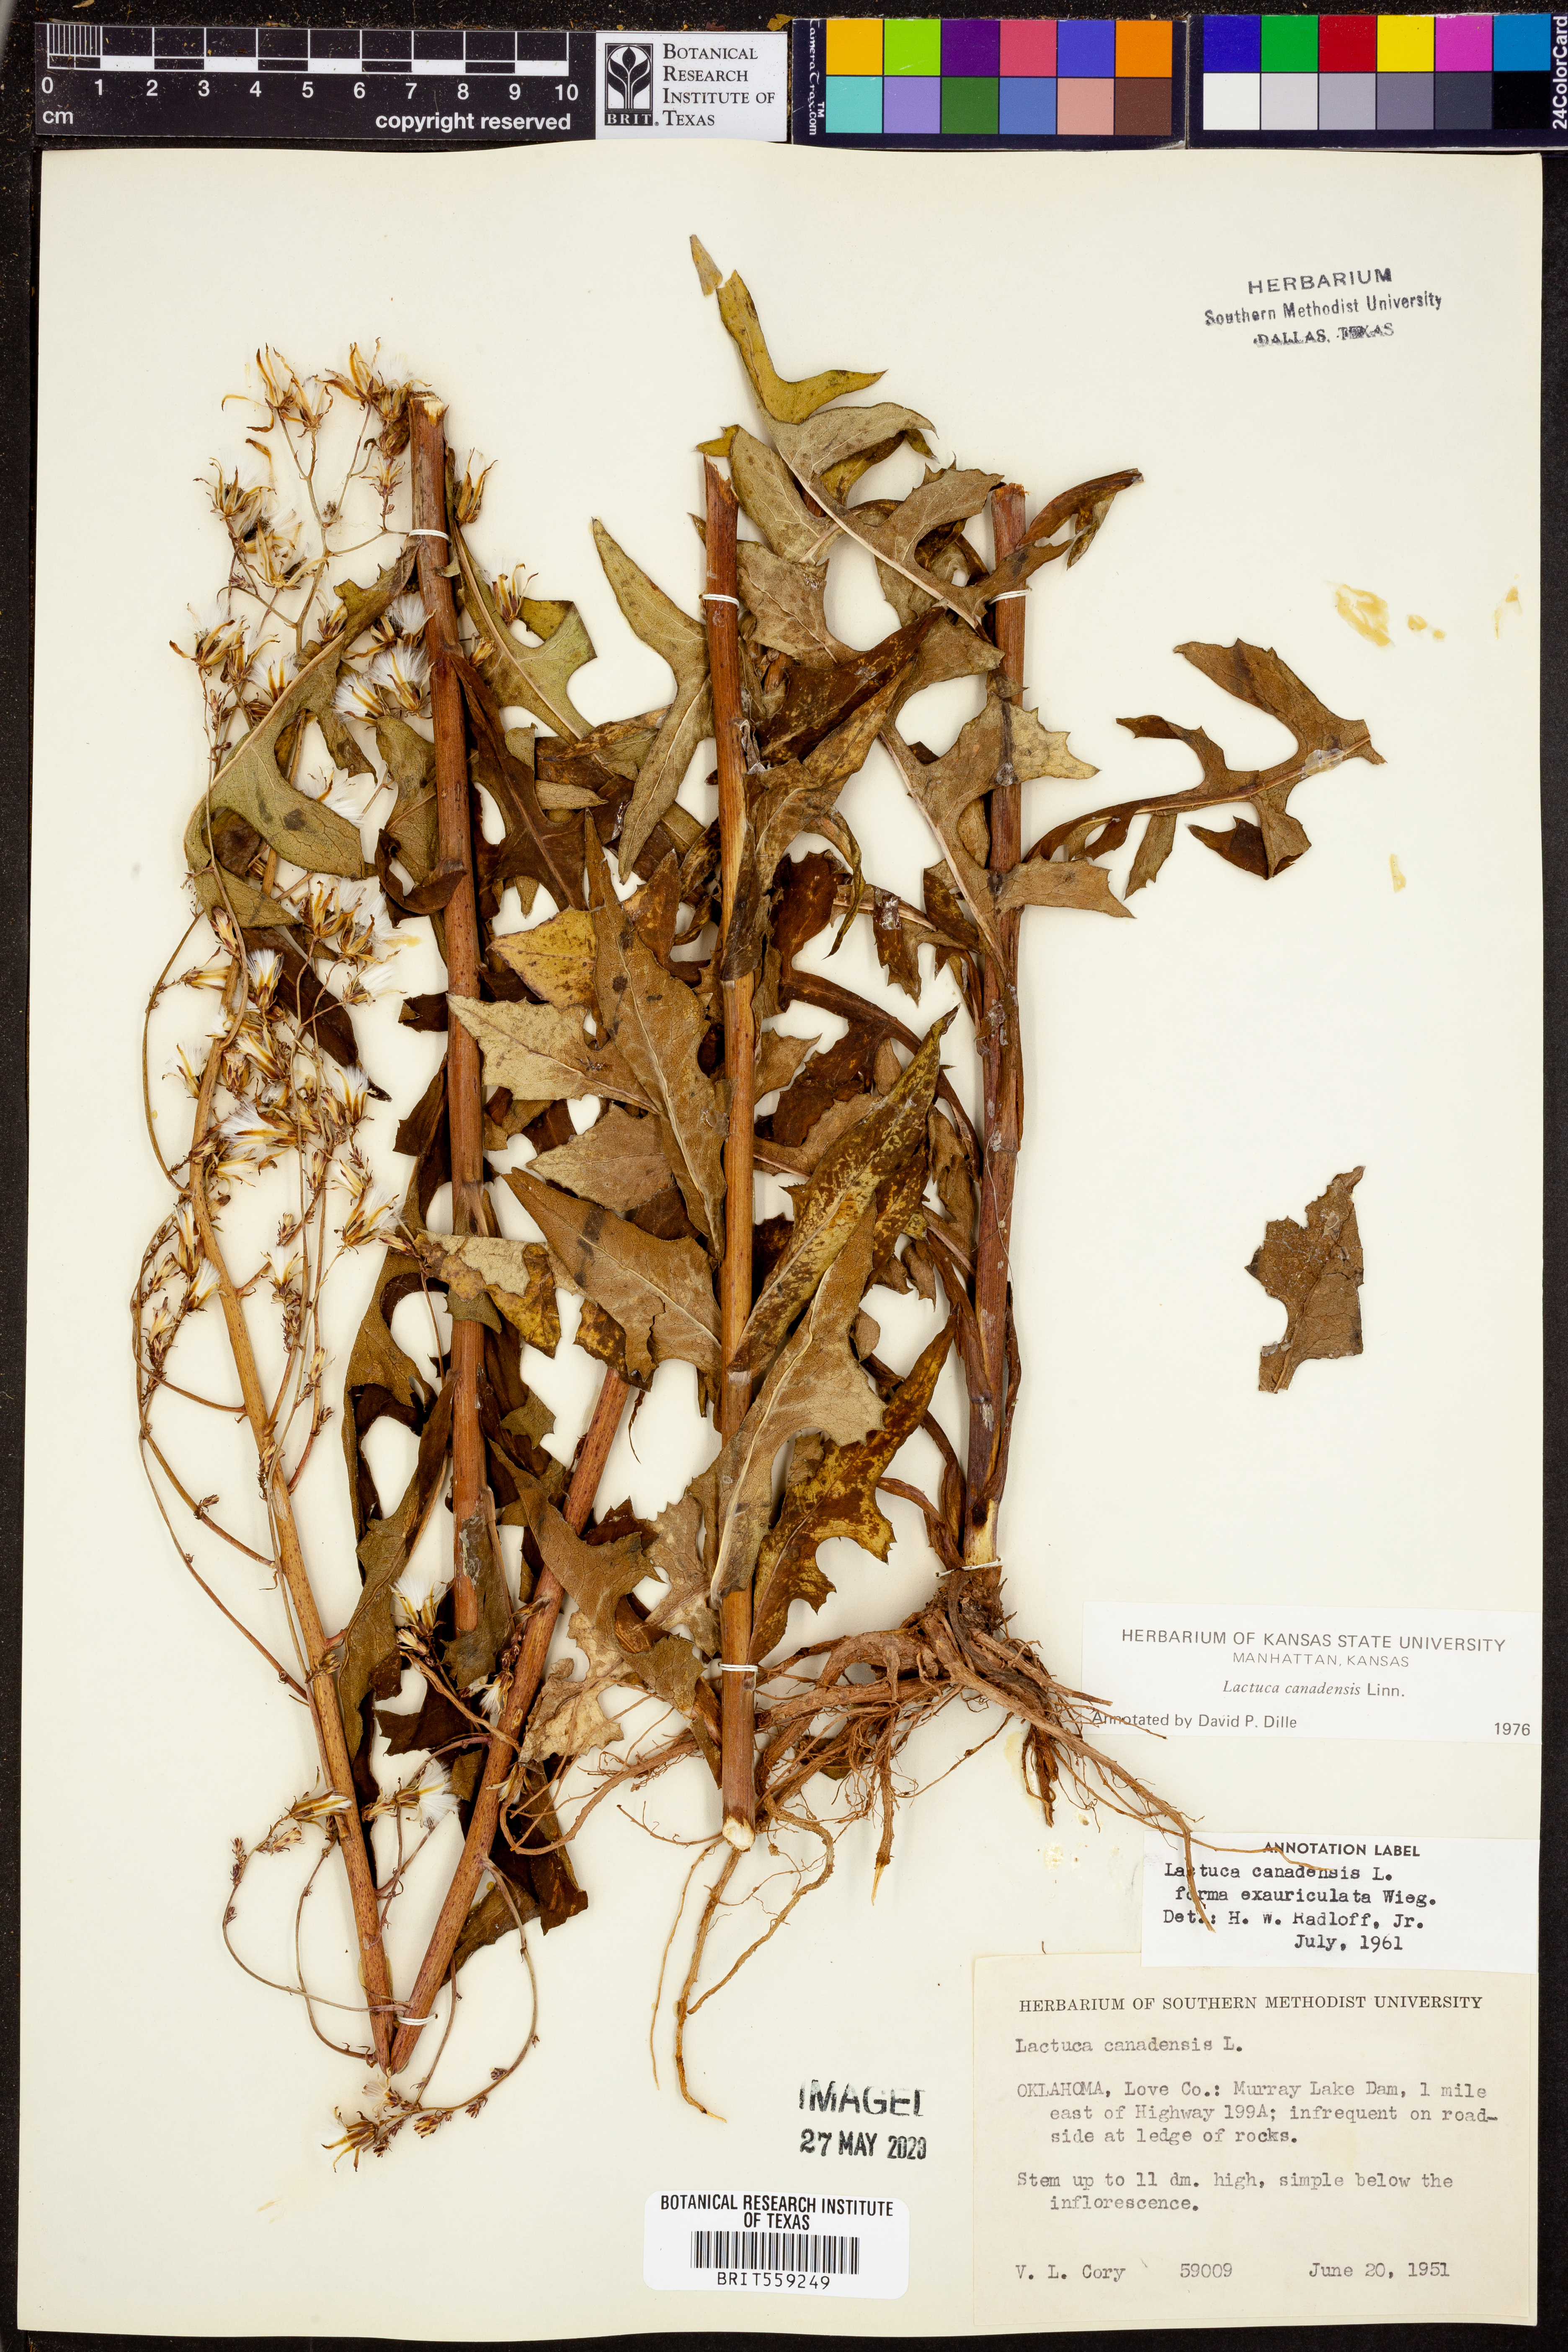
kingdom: Plantae
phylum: Tracheophyta
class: Magnoliopsida
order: Asterales
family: Asteraceae
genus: Lactuca
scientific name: Lactuca canadensis
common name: Canada lettuce
